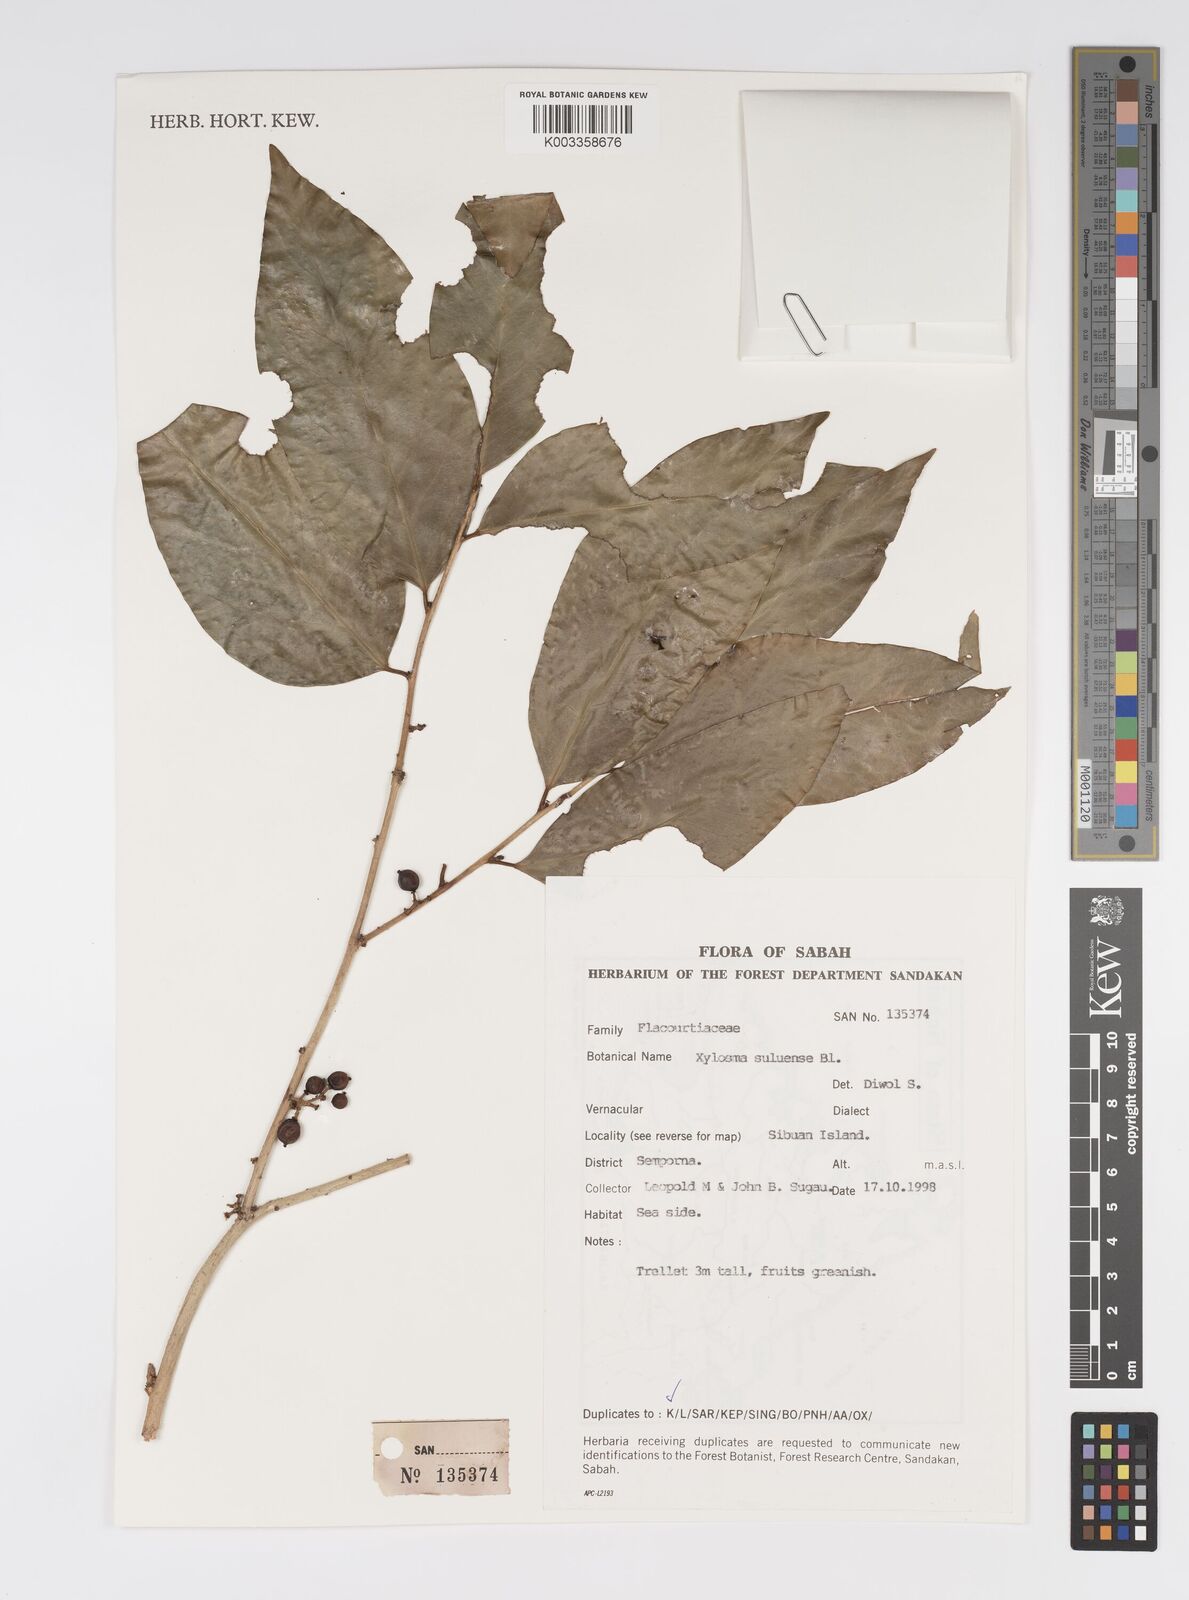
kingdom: Plantae
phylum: Tracheophyta
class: Magnoliopsida
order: Malpighiales
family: Salicaceae
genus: Xylosma
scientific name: Xylosma suluensis
